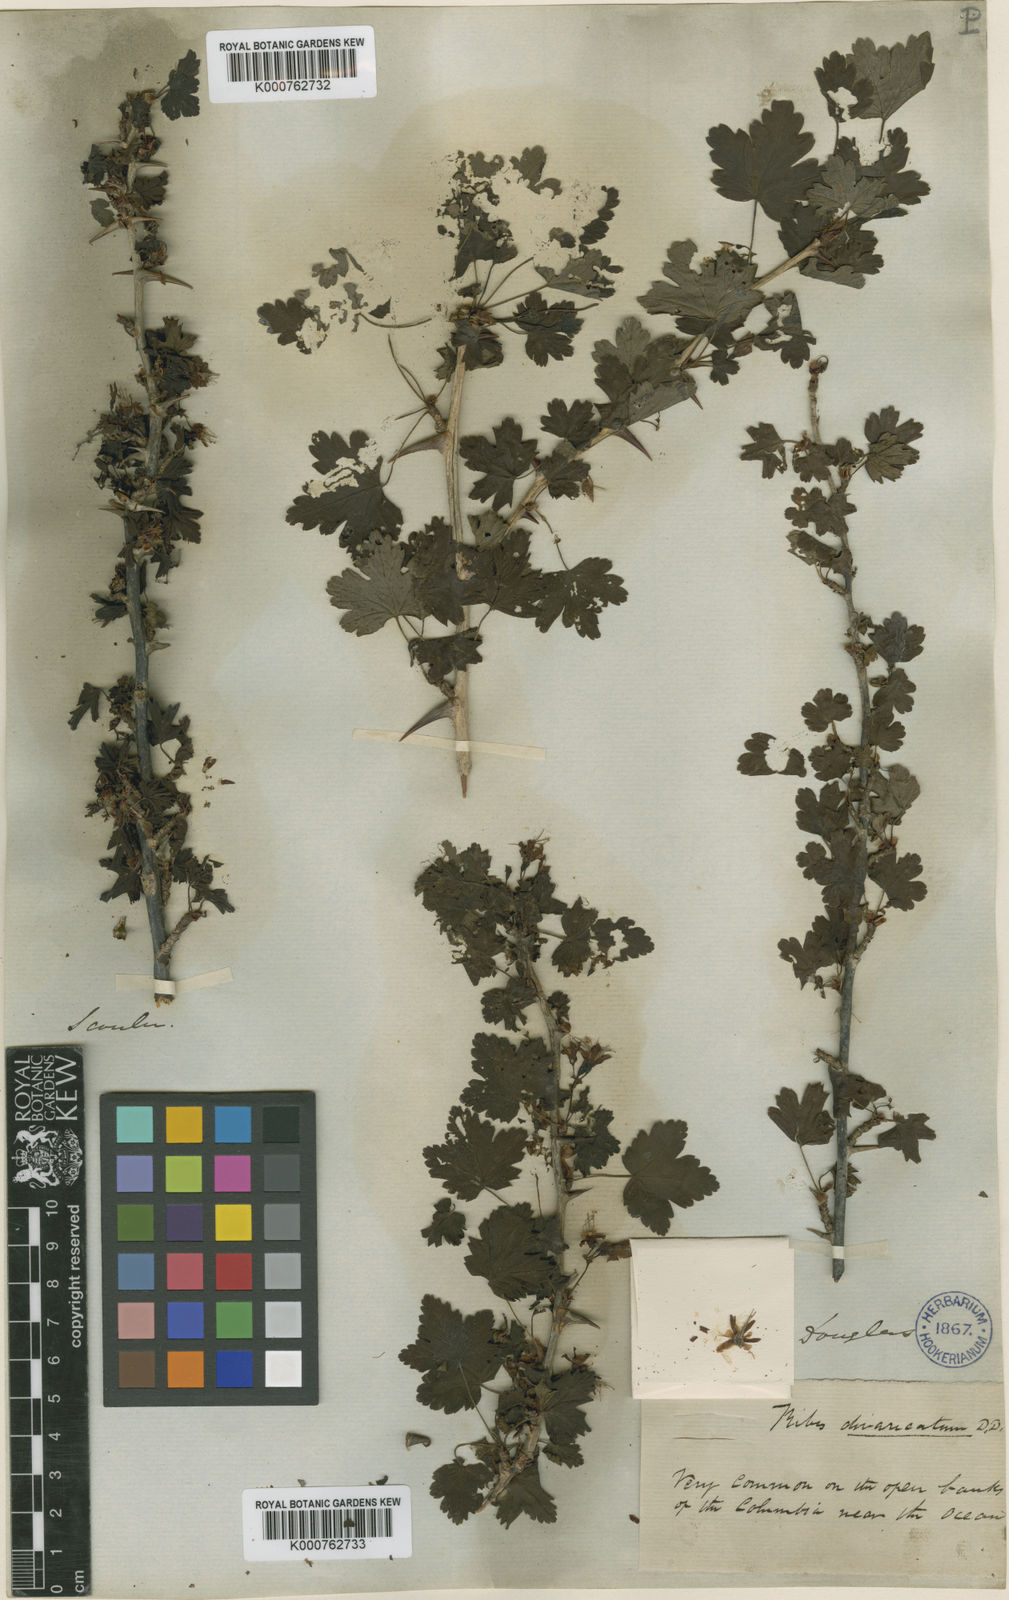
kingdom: Plantae
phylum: Tracheophyta
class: Magnoliopsida
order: Saxifragales
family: Grossulariaceae
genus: Ribes
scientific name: Ribes divaricatum
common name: Wild black gooseberry
